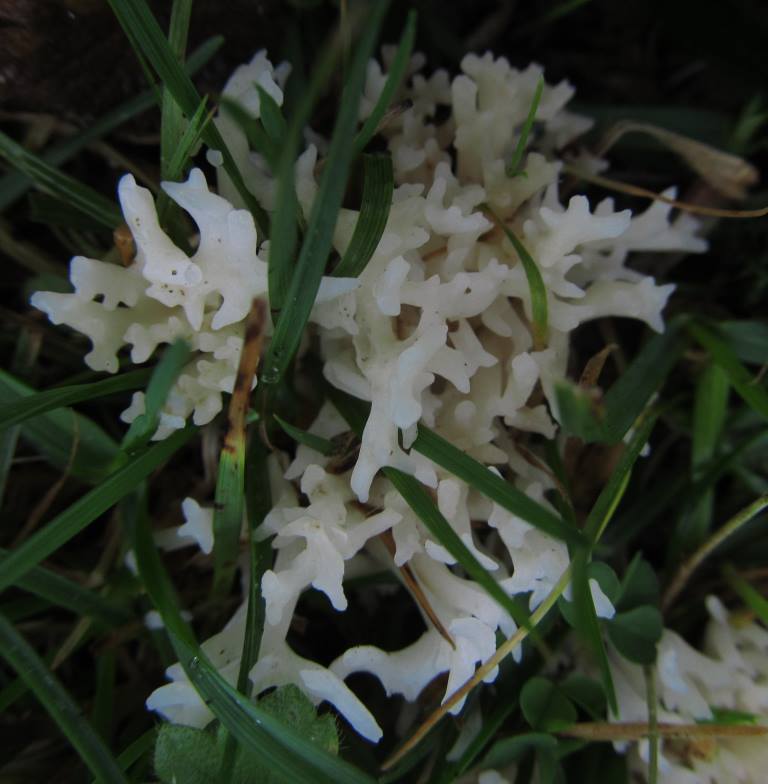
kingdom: Fungi
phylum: Basidiomycota
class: Agaricomycetes
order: Agaricales
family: Clavariaceae
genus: Ramariopsis
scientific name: Ramariopsis kunzei
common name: mangegrenet køllesvamp
